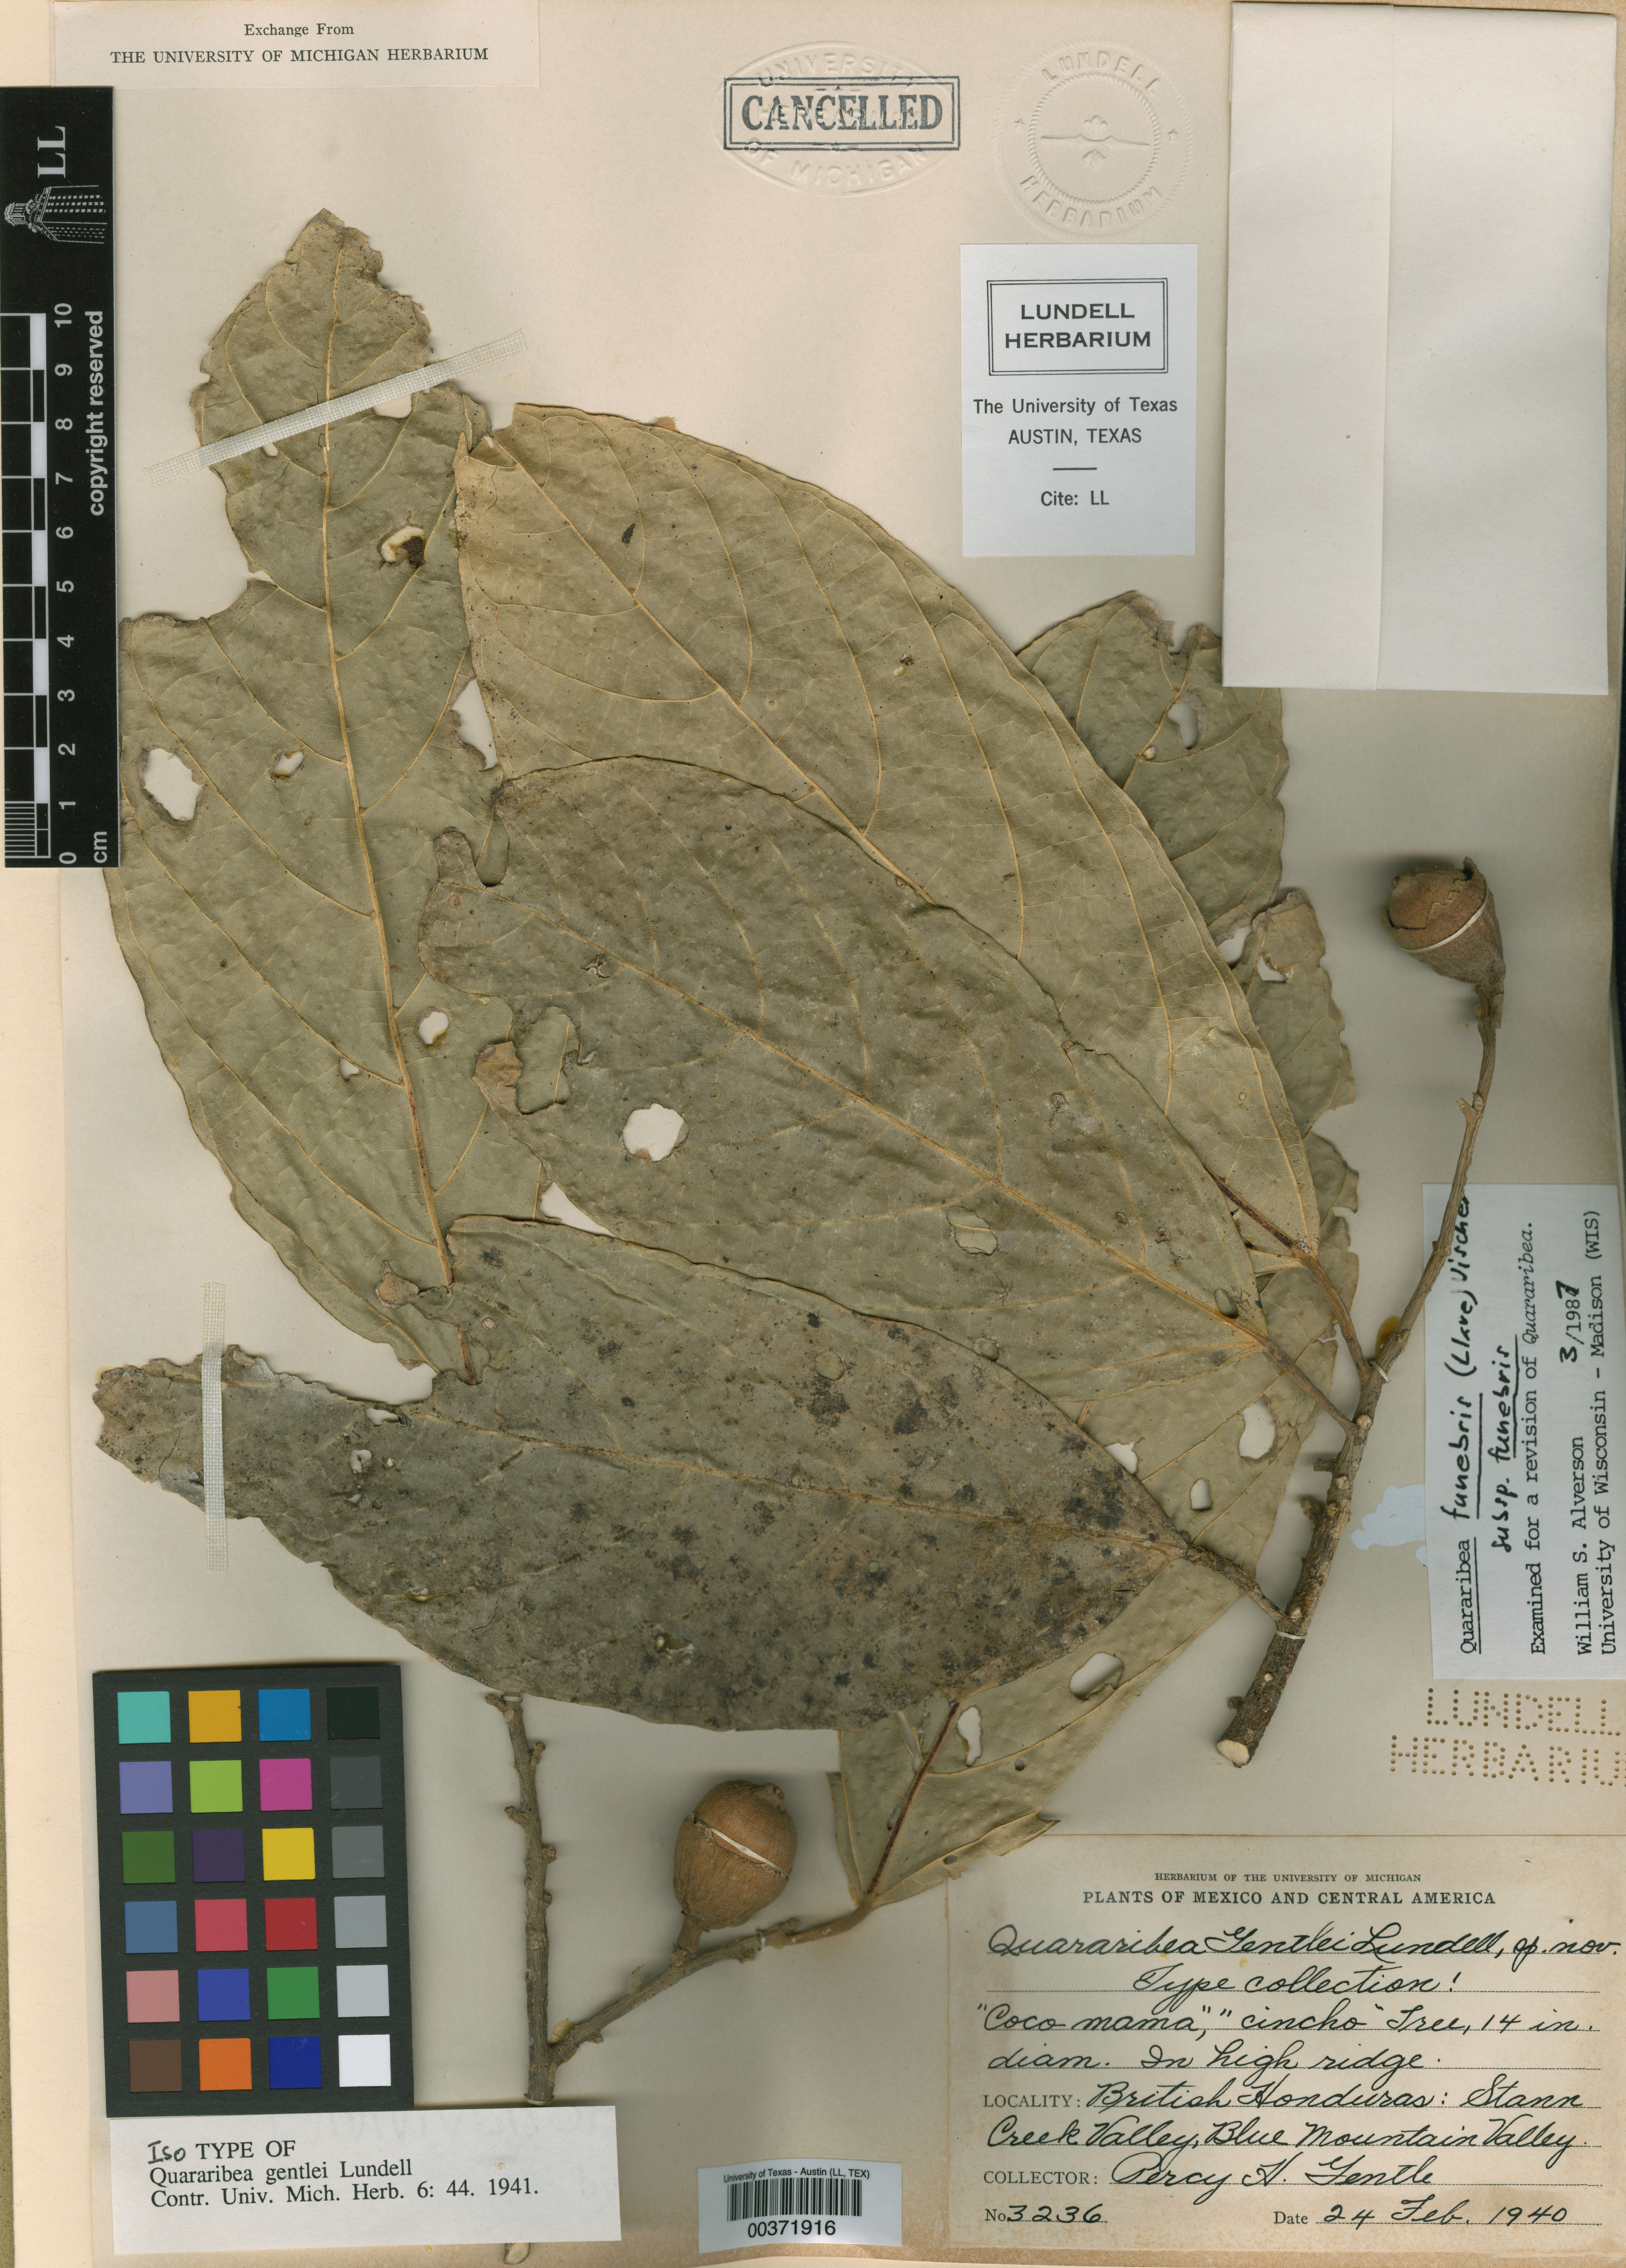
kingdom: Plantae
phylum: Tracheophyta
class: Magnoliopsida
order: Malvales
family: Malvaceae
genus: Quararibea
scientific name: Quararibea funebris
